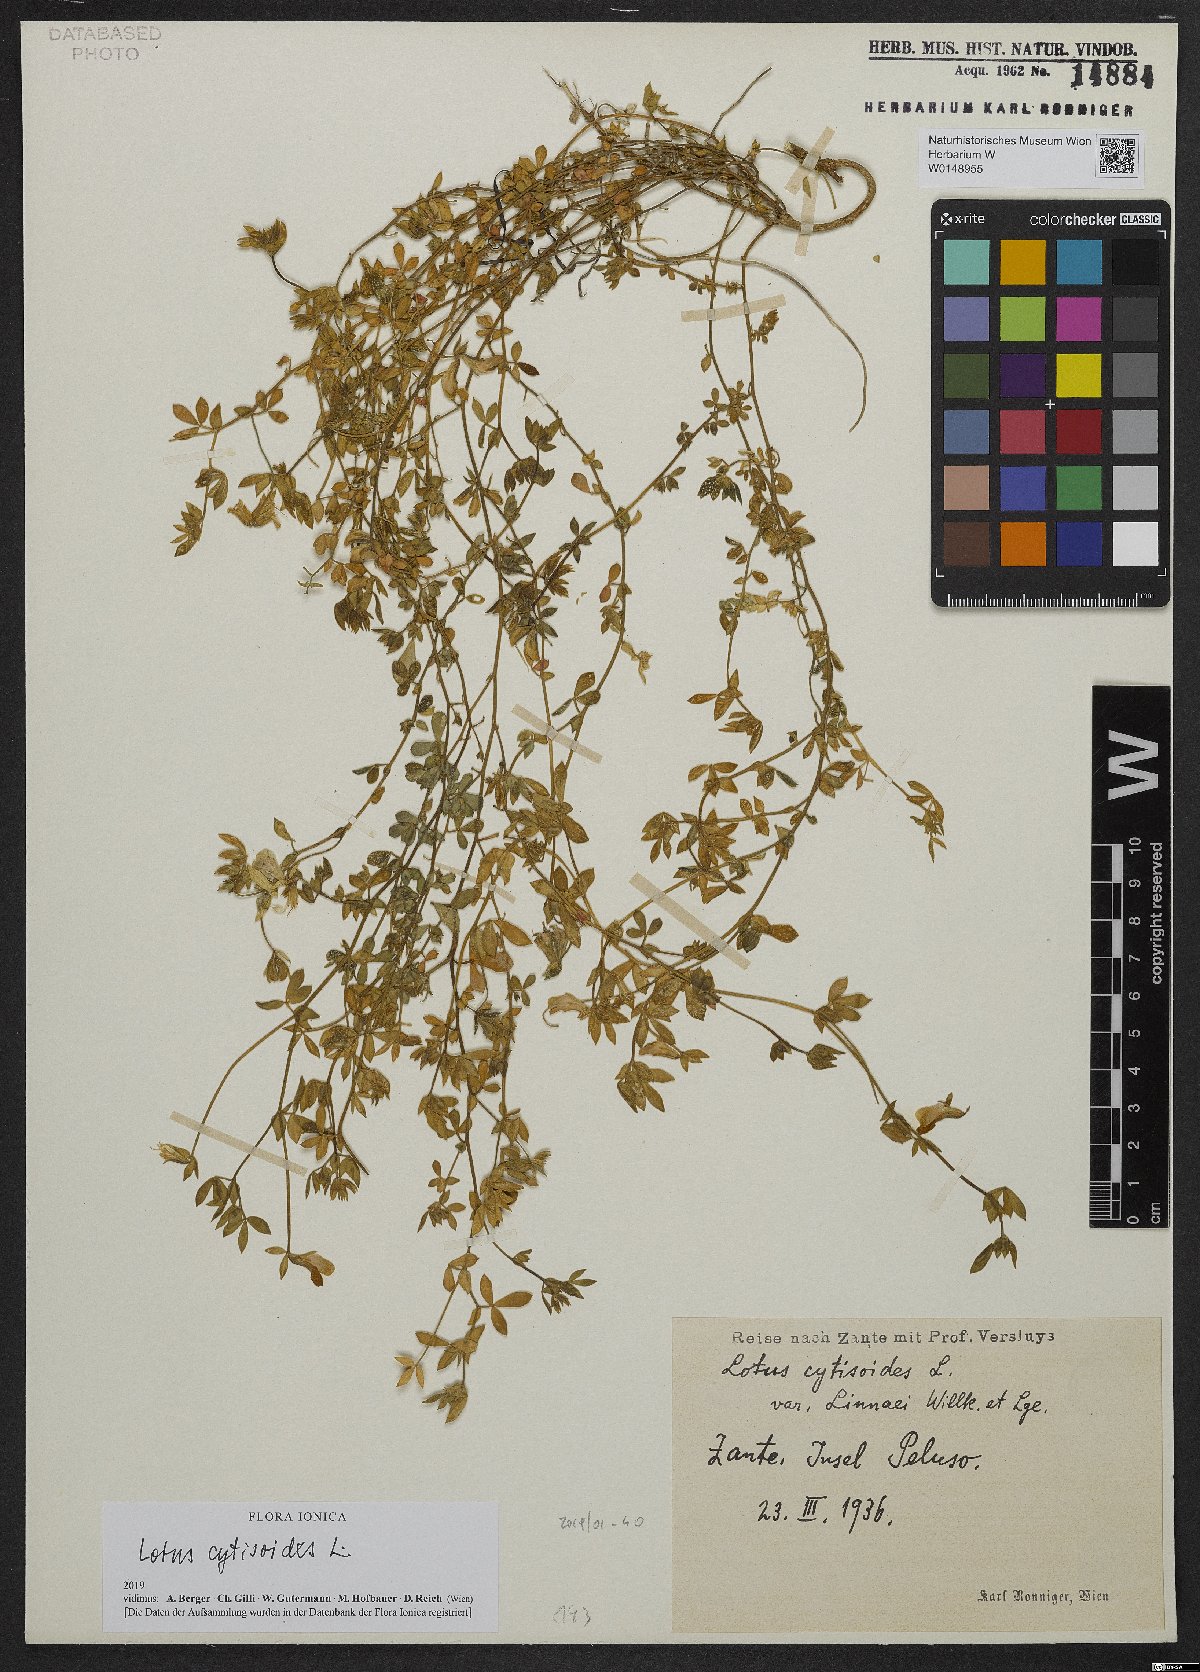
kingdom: Plantae
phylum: Tracheophyta
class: Magnoliopsida
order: Fabales
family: Fabaceae
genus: Lotus
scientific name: Lotus cytisoides
